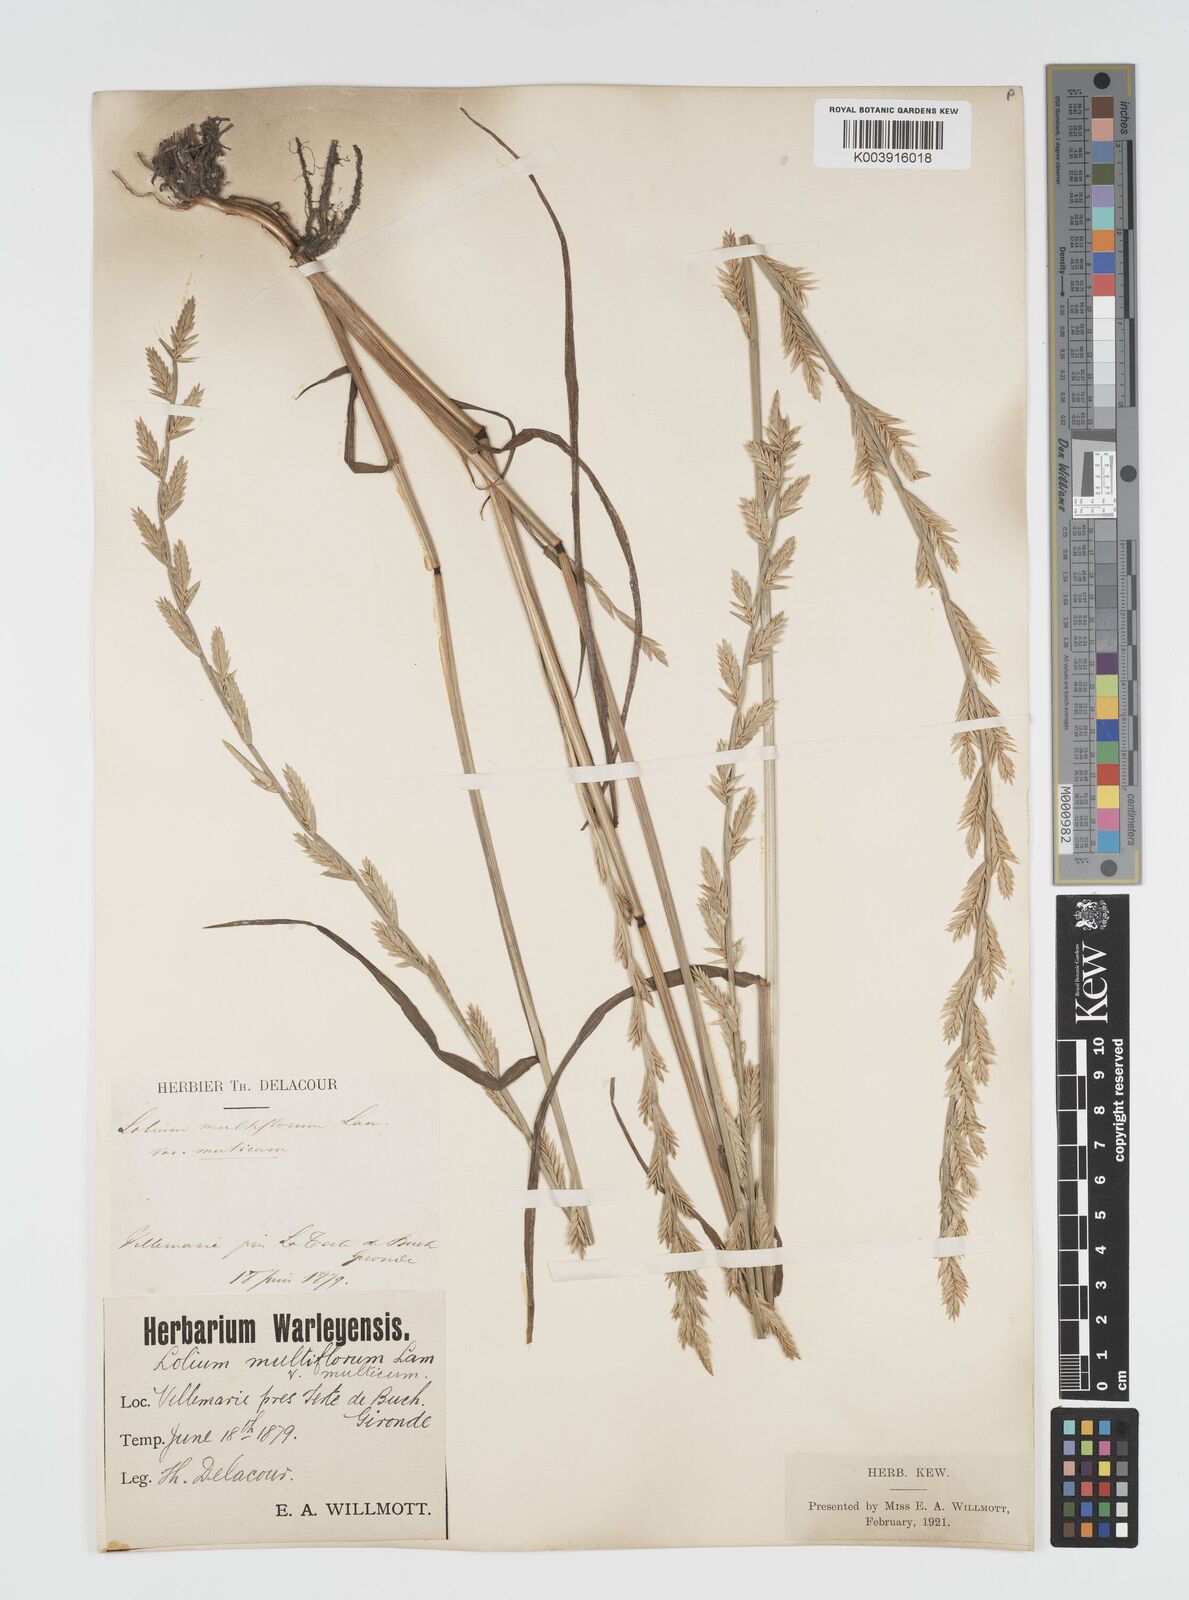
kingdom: Plantae
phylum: Tracheophyta
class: Liliopsida
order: Poales
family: Poaceae
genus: Lolium
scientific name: Lolium multiflorum
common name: Annual ryegrass
